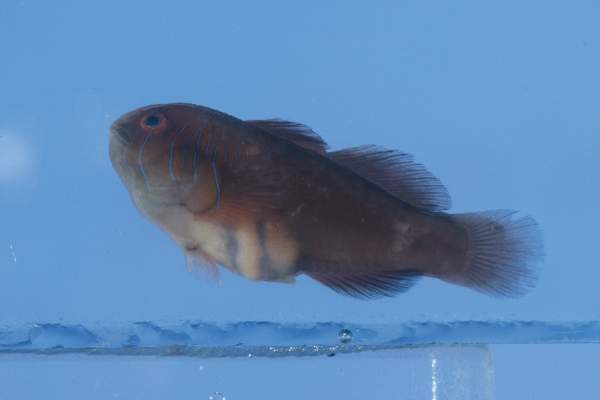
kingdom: Animalia
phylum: Chordata
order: Perciformes
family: Gobiidae
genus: Gobiodon
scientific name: Gobiodon rivulatus
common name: Rippled coralgoby
